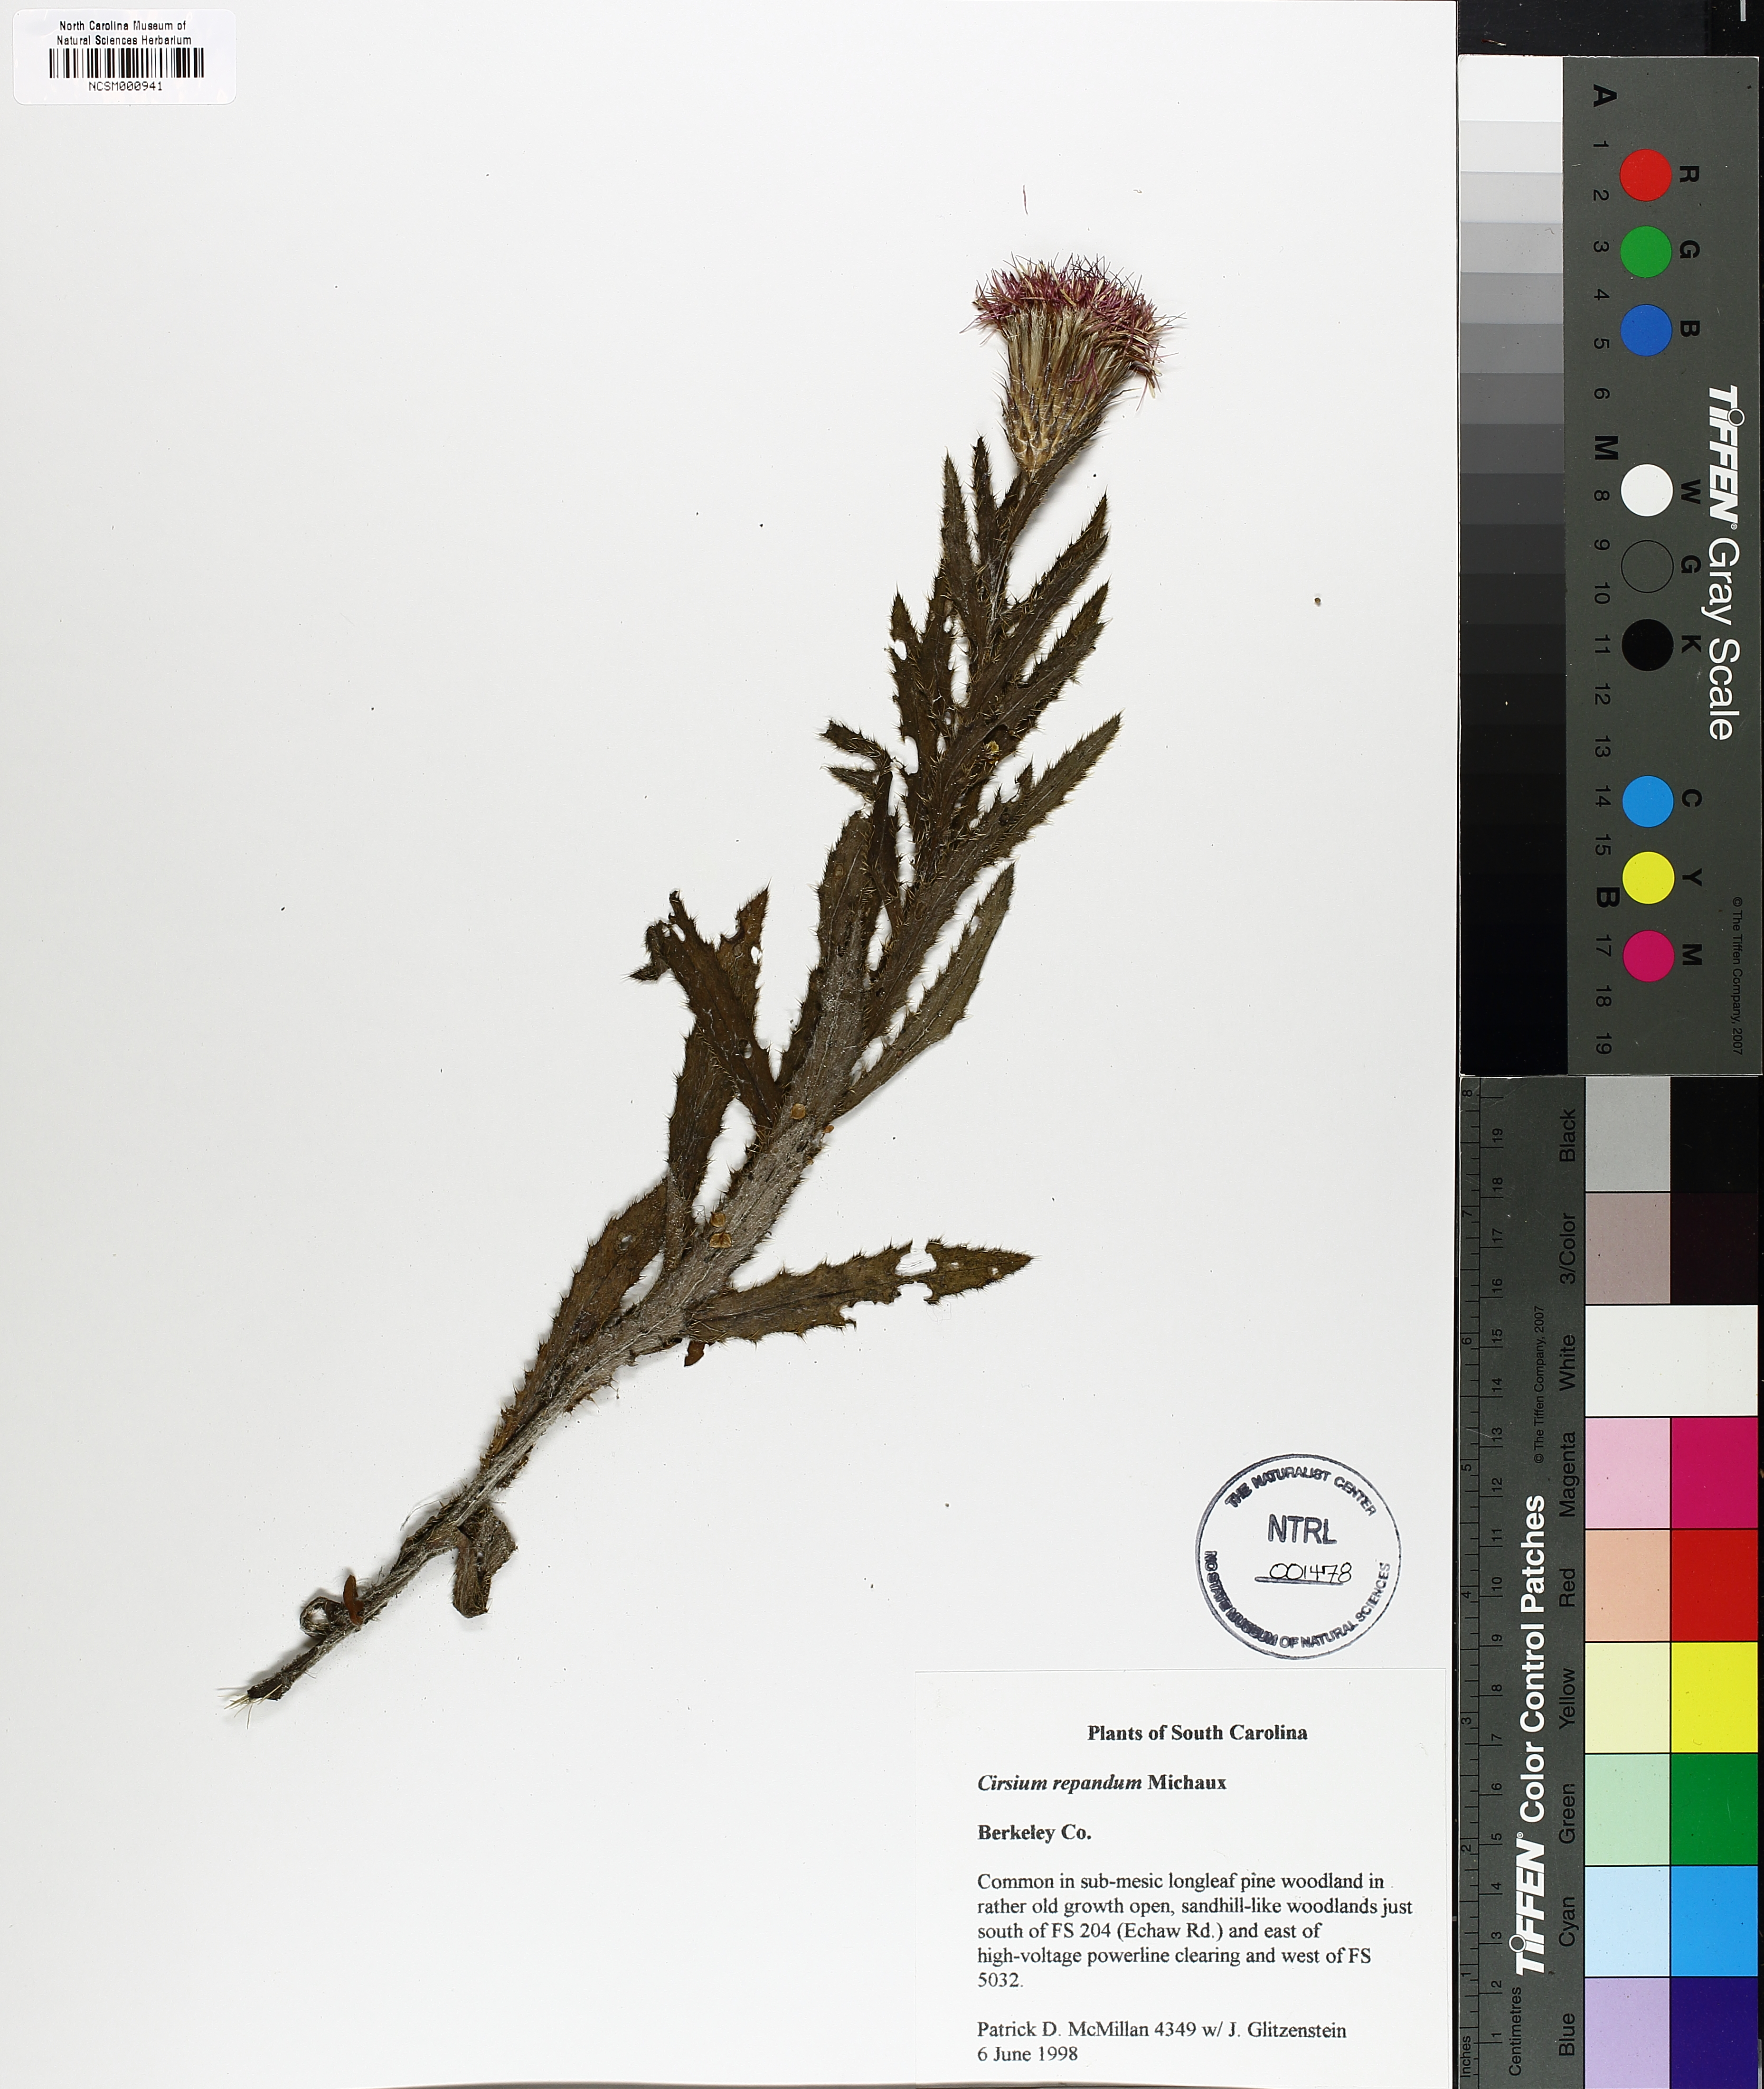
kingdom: Plantae
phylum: Tracheophyta
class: Magnoliopsida
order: Asterales
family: Asteraceae
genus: Cirsium
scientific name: Cirsium repandum
